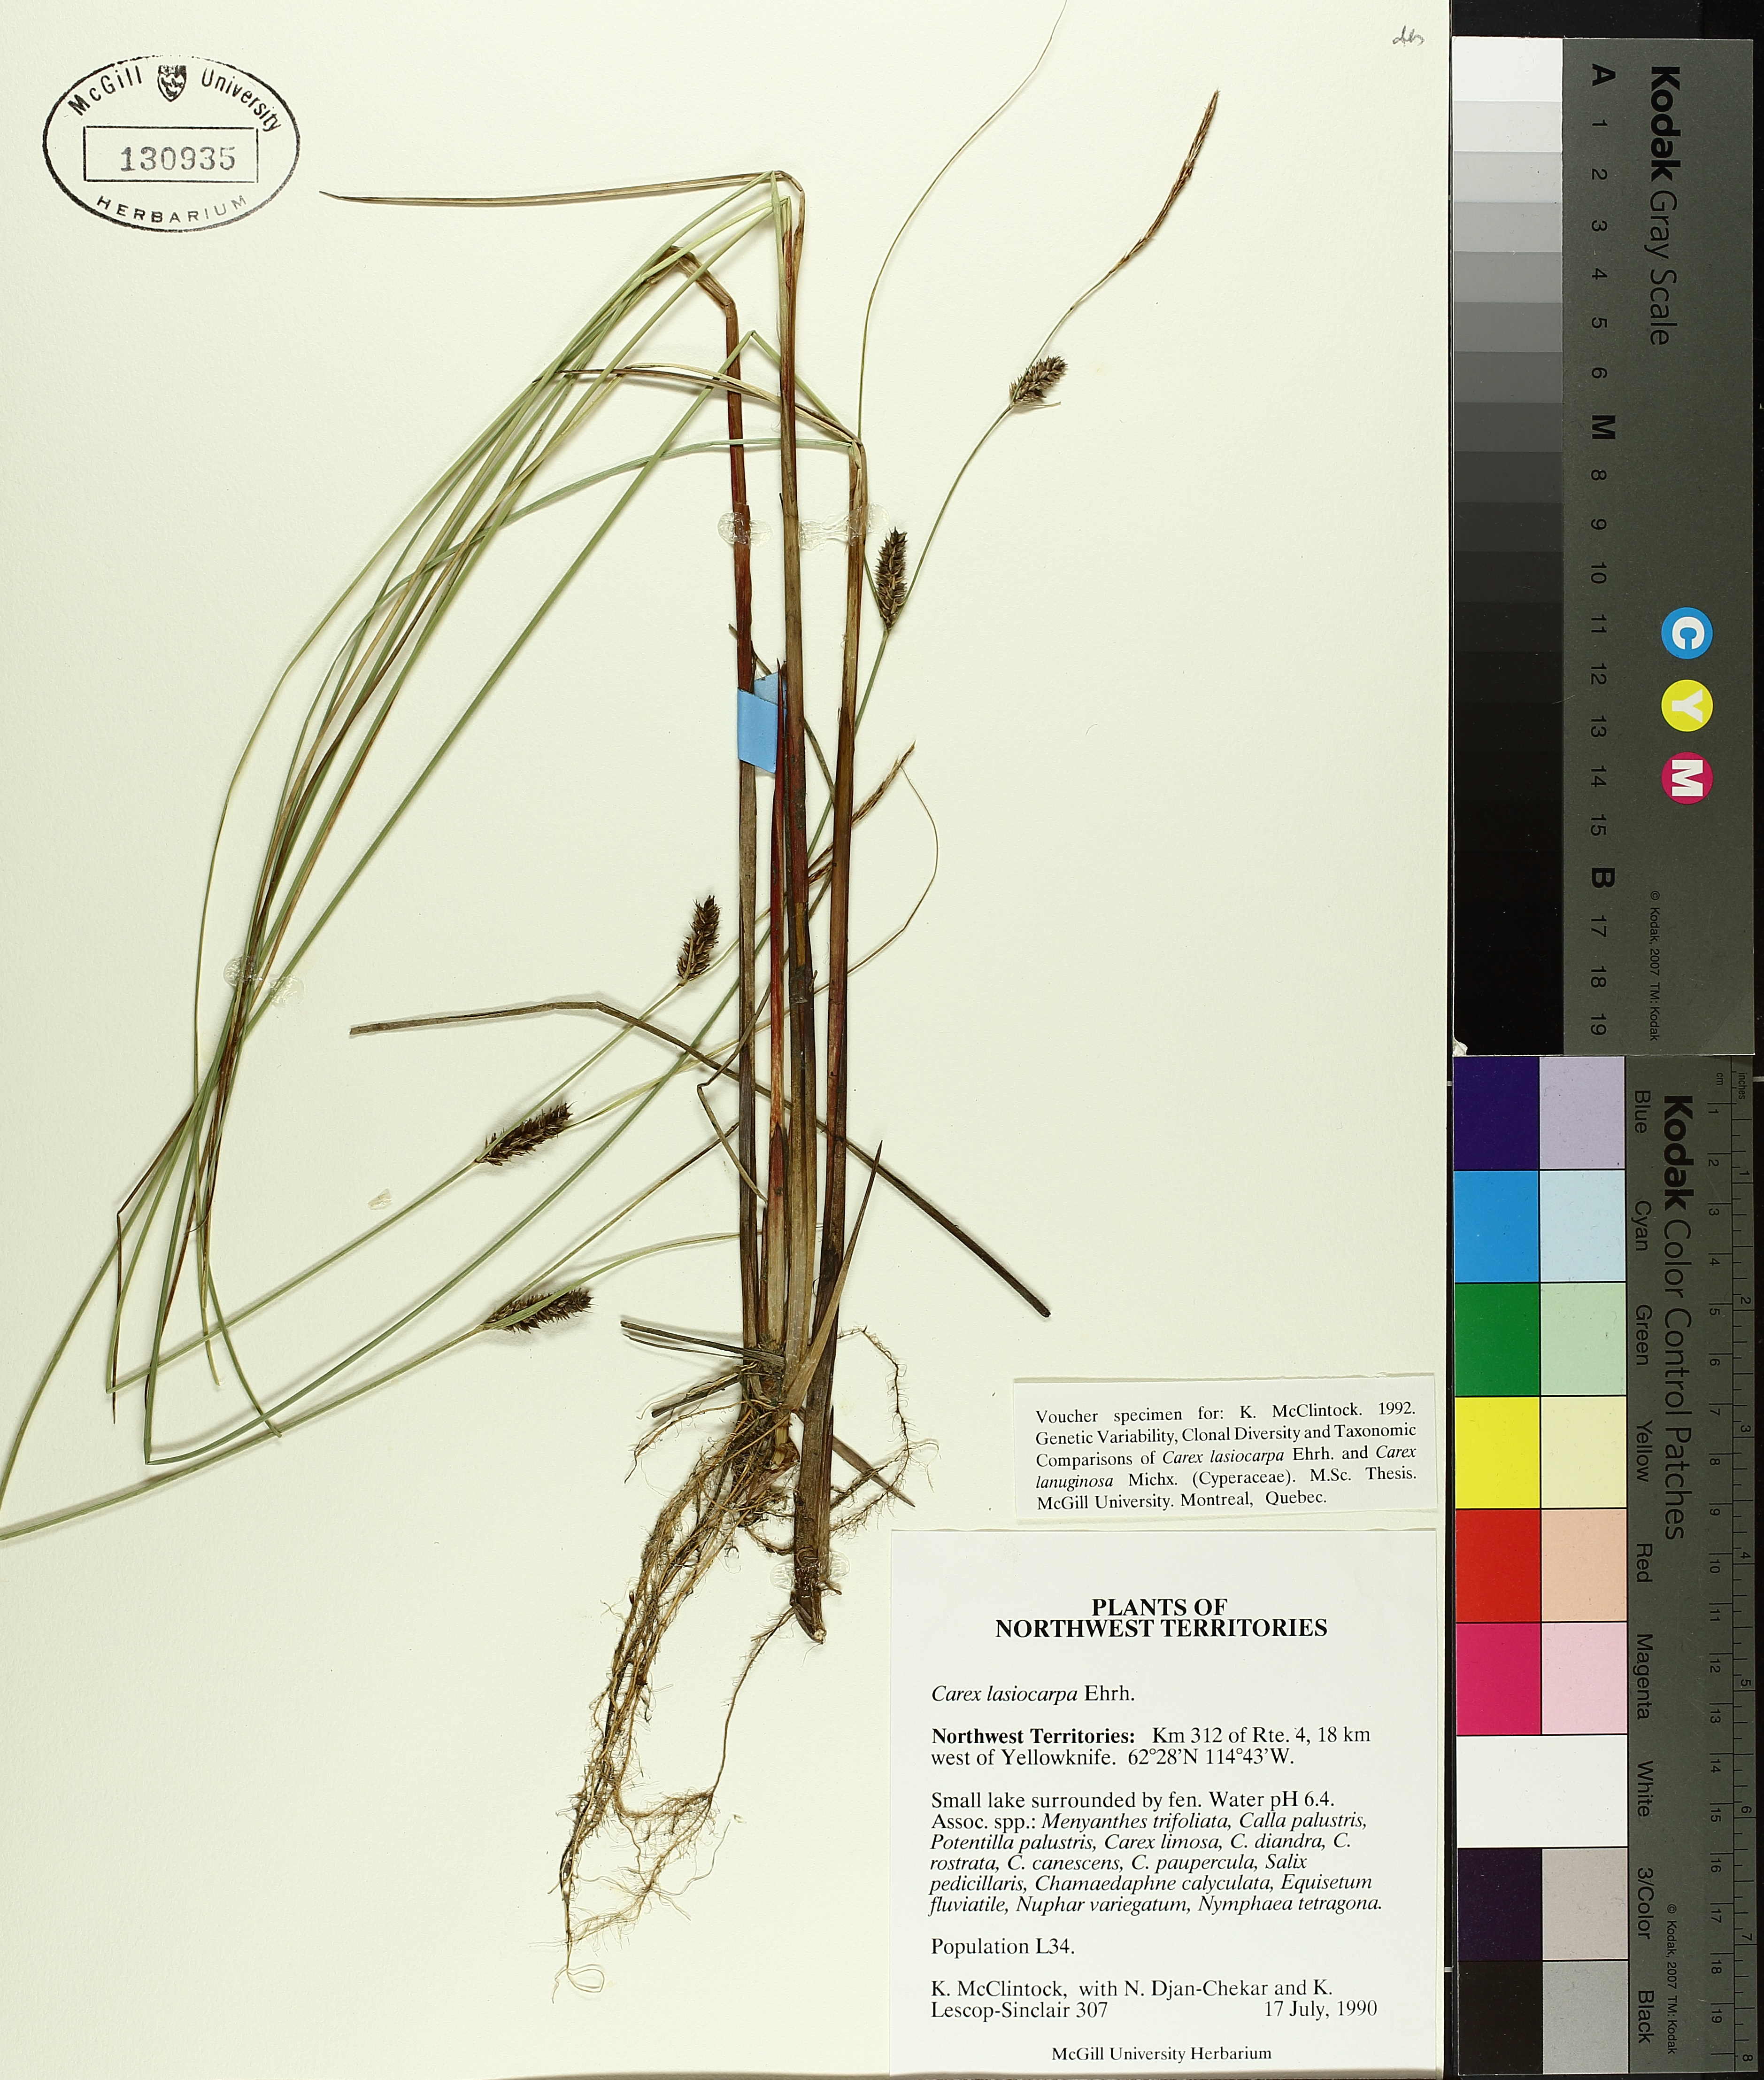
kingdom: Plantae
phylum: Tracheophyta
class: Liliopsida
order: Poales
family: Cyperaceae
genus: Carex
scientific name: Carex lasiocarpa
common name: Slender sedge
